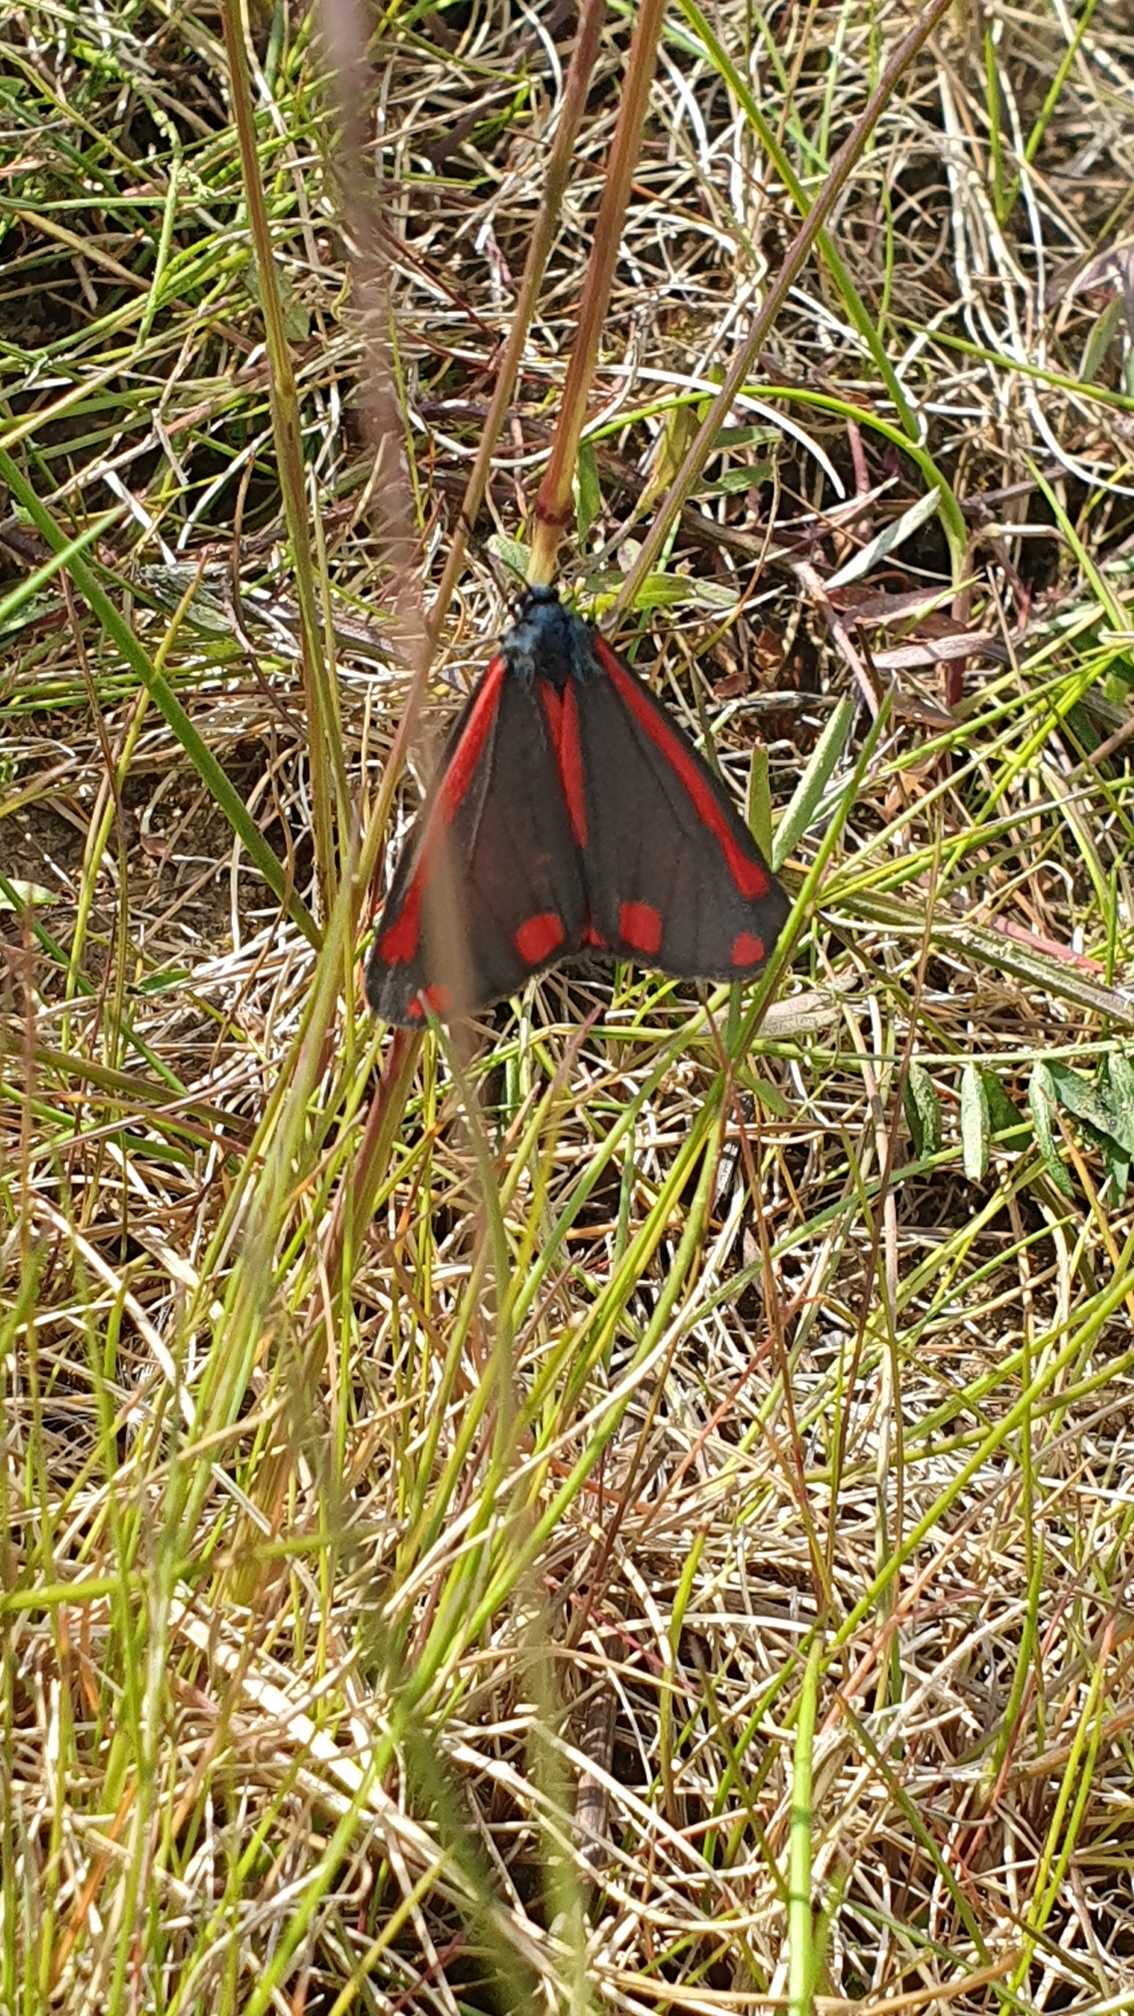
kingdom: Animalia
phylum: Arthropoda
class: Insecta
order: Lepidoptera
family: Erebidae
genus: Tyria
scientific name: Tyria jacobaeae
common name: Blodplet
